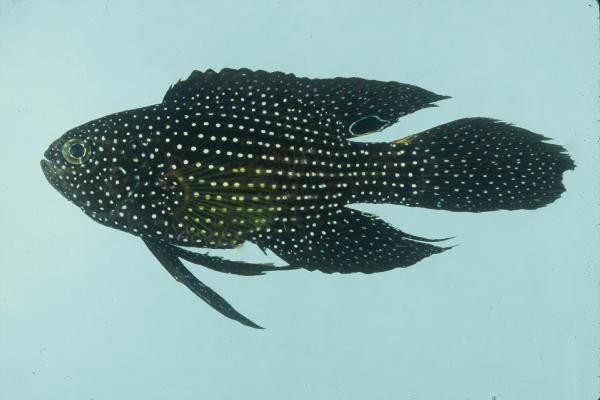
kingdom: Animalia
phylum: Chordata
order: Perciformes
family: Plesiopidae
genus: Calloplesiops
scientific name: Calloplesiops altivelis
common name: Comet
